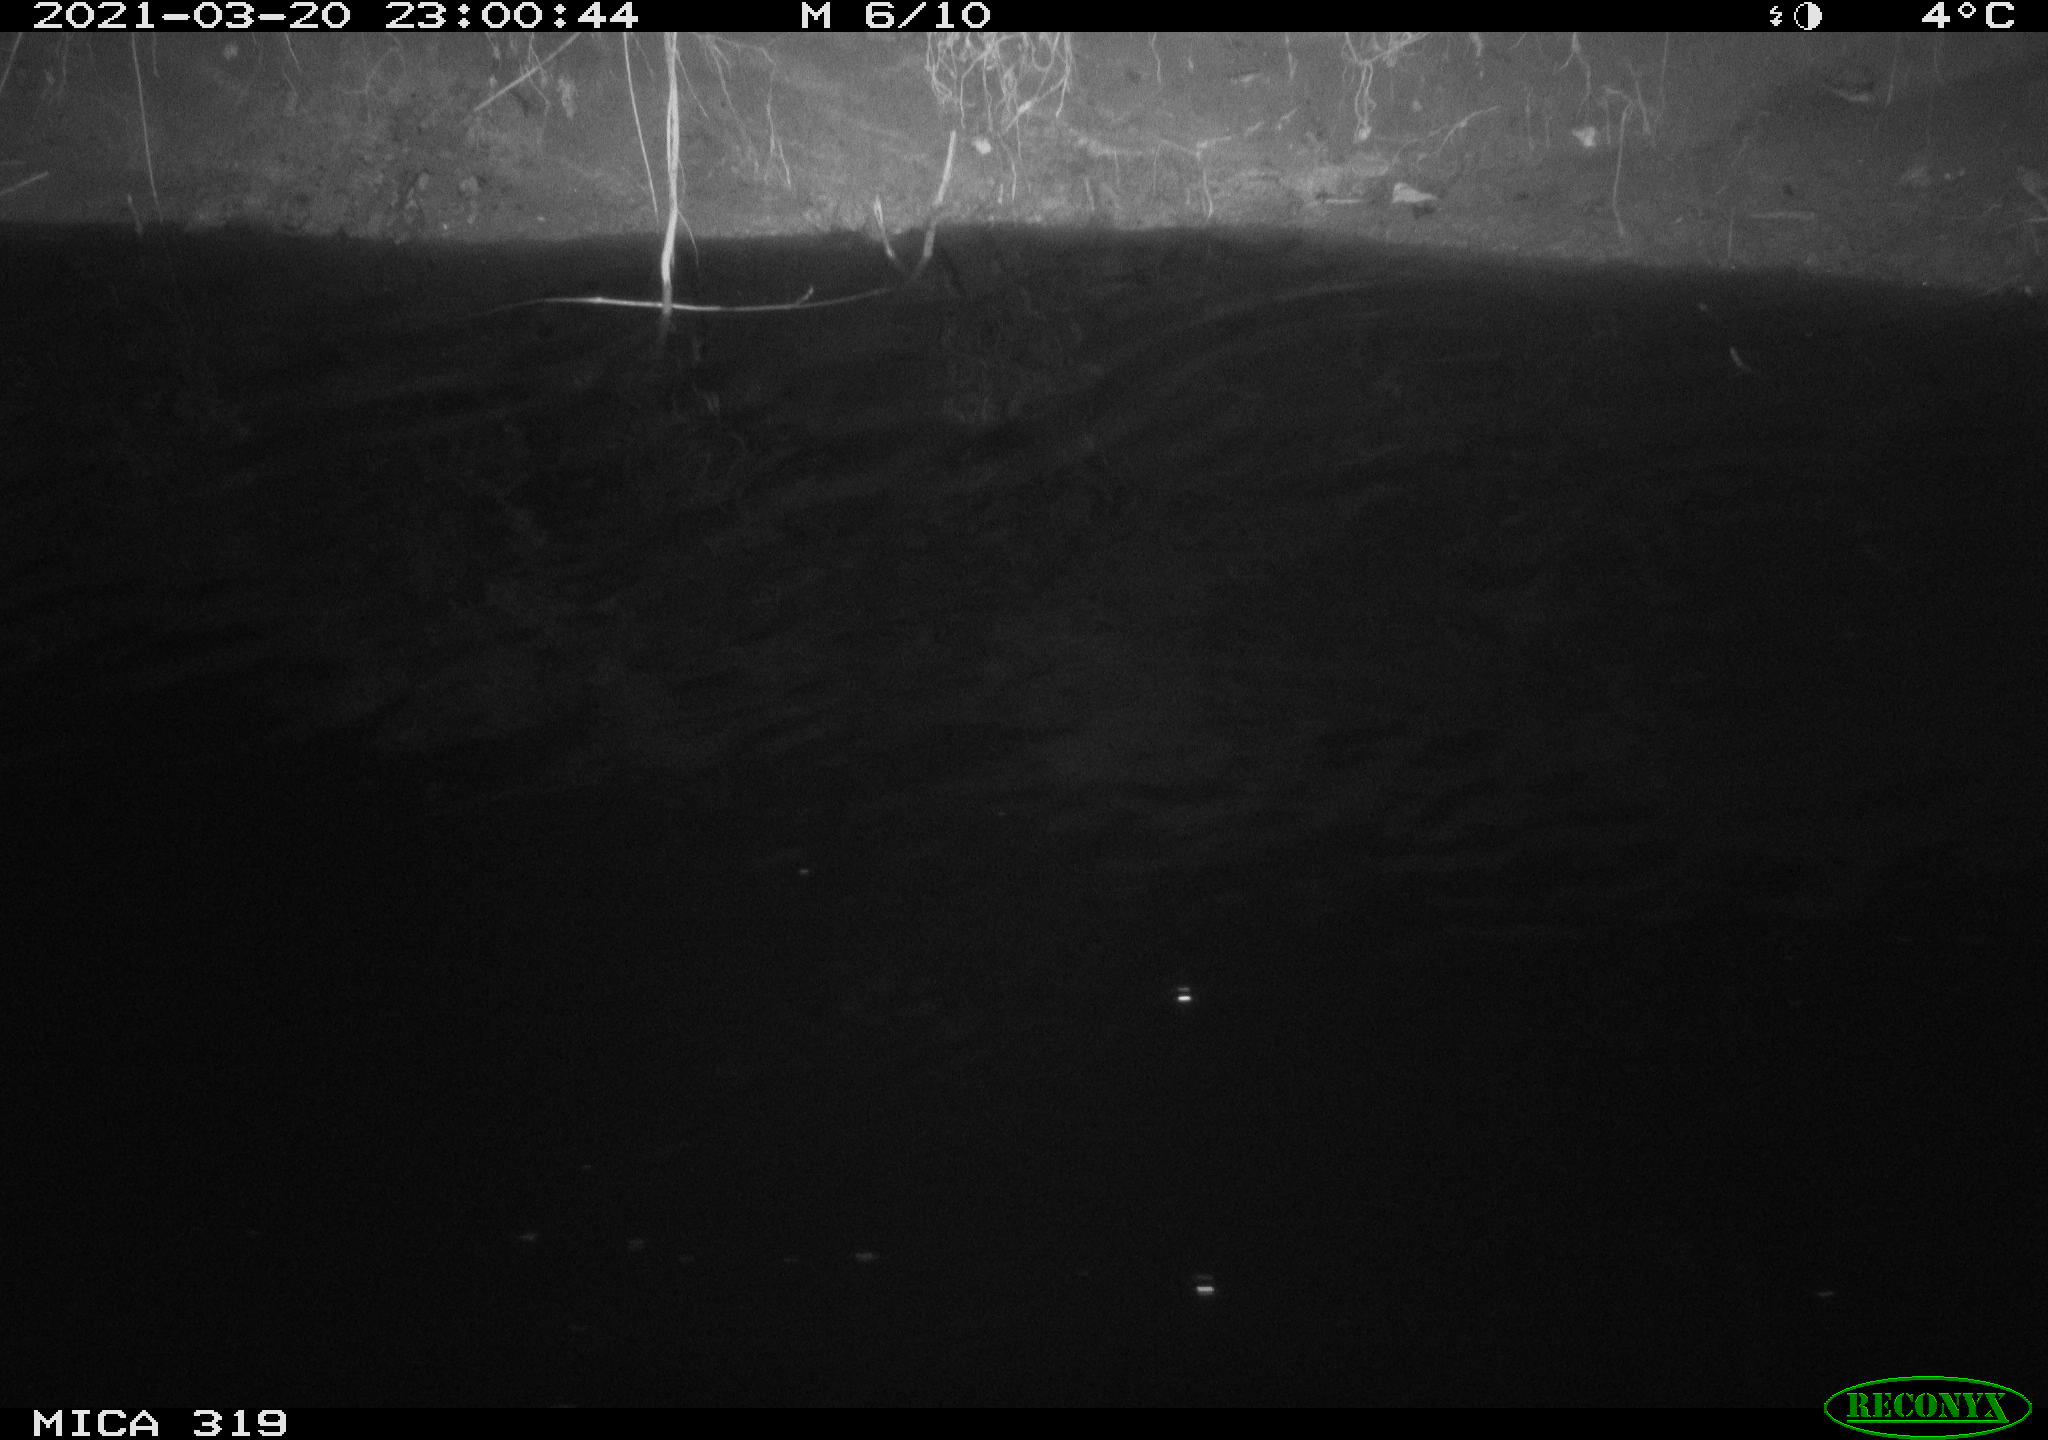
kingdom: Animalia
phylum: Chordata
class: Aves
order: Anseriformes
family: Anatidae
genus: Anas
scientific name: Anas platyrhynchos
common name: Mallard
